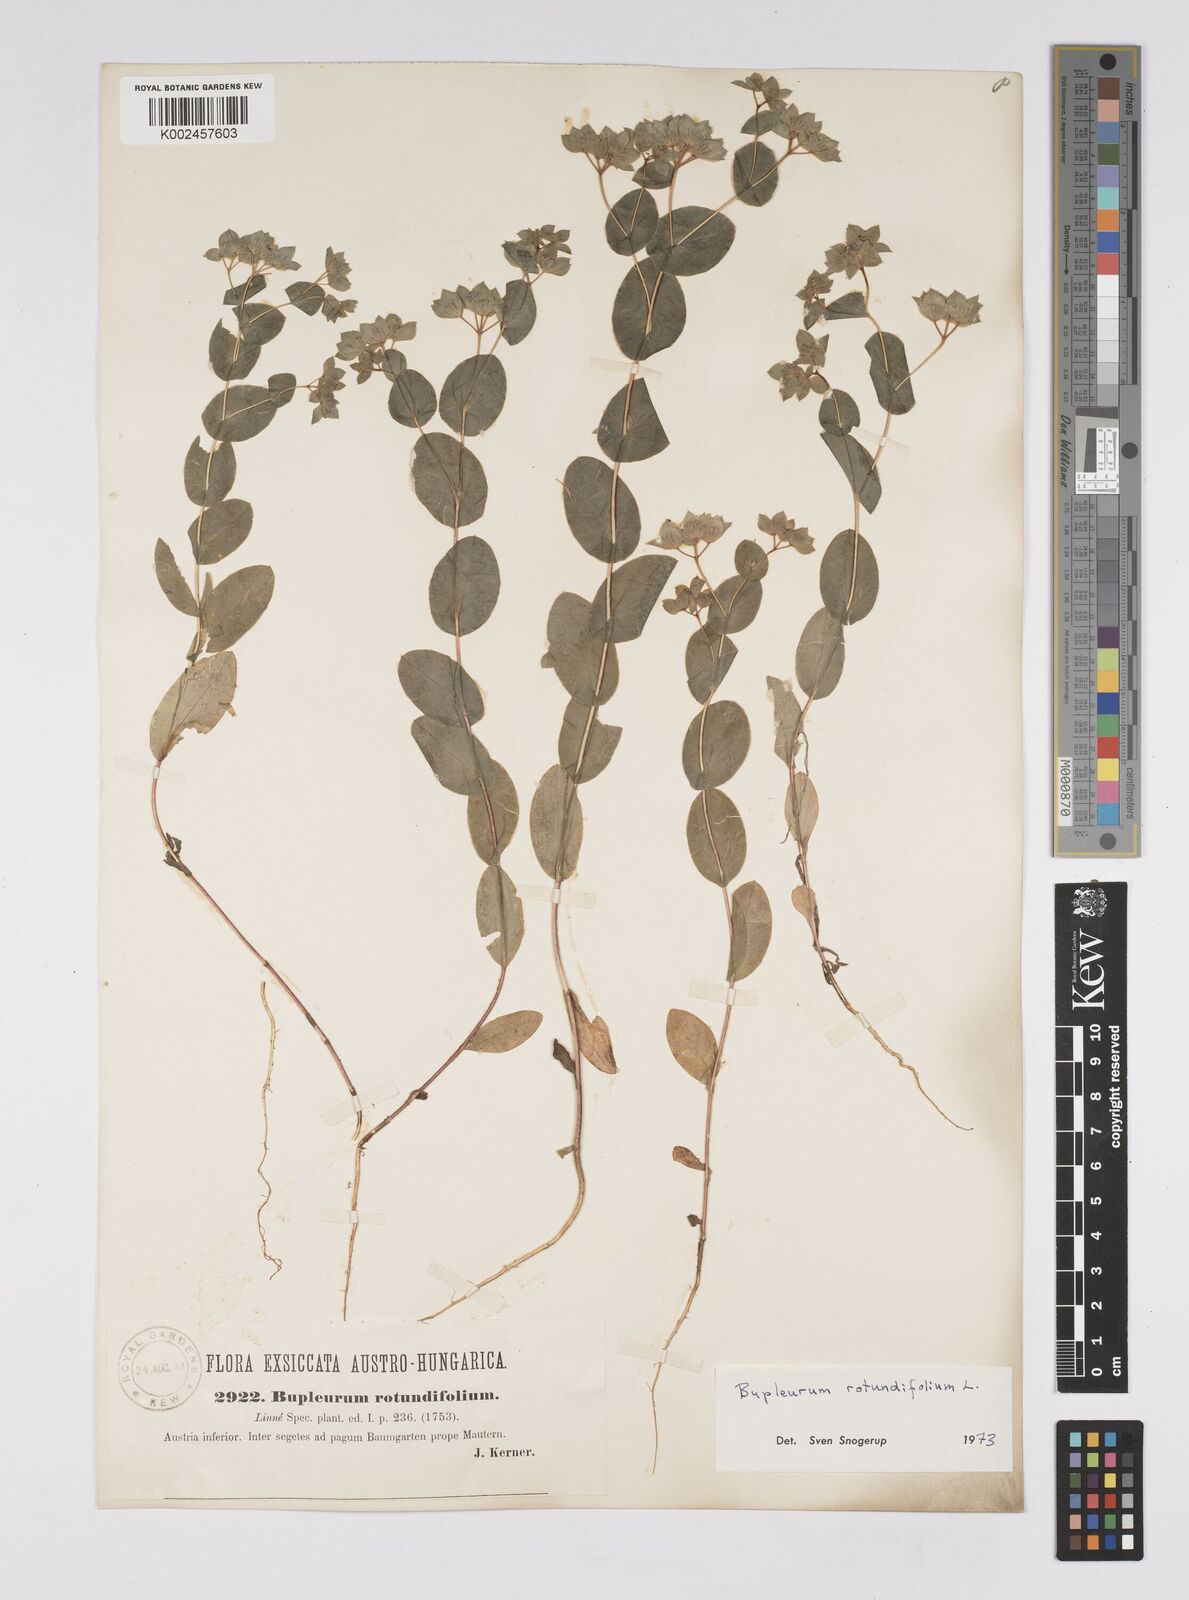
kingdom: Plantae
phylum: Tracheophyta
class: Magnoliopsida
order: Apiales
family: Apiaceae
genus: Bupleurum
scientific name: Bupleurum rotundifolium
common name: Thorow-wax
